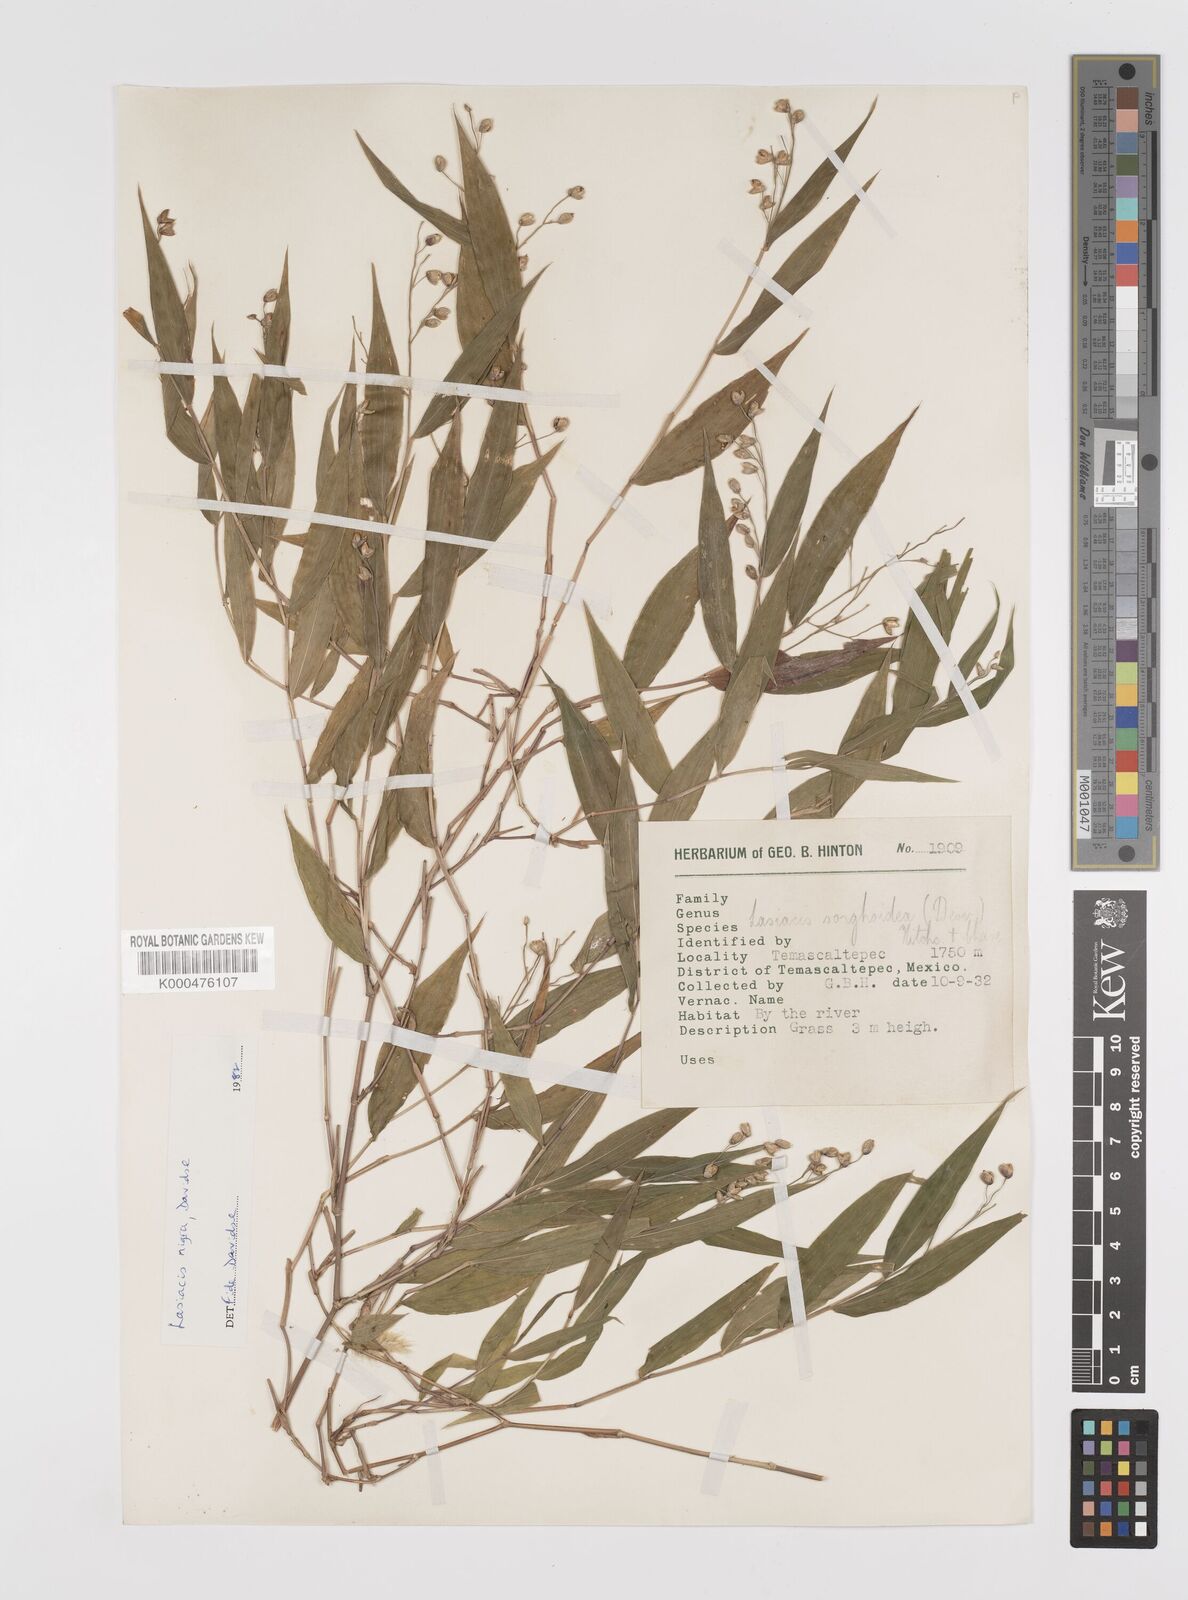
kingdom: Plantae
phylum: Tracheophyta
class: Liliopsida
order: Poales
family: Poaceae
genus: Lasiacis
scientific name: Lasiacis nigra
